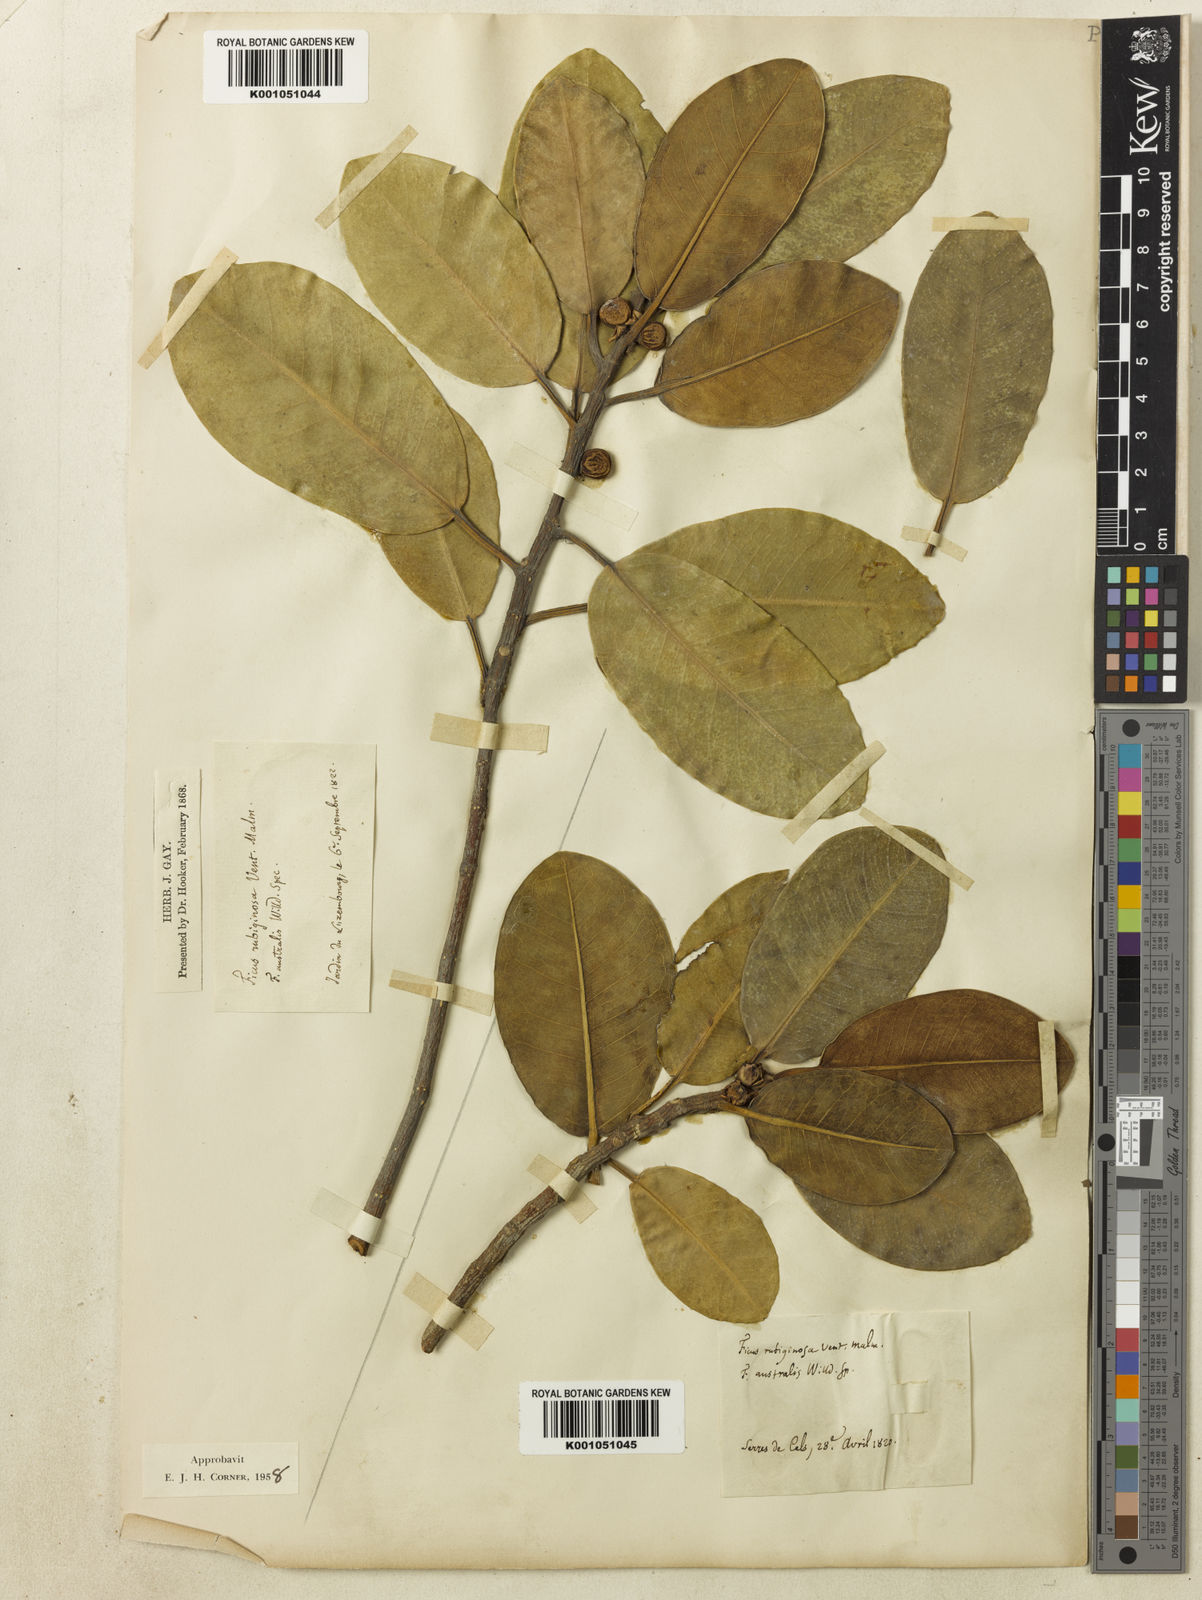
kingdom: Plantae
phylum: Tracheophyta
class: Magnoliopsida
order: Rosales
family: Moraceae
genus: Ficus
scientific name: Ficus rubiginosa
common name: Port jackson fig
